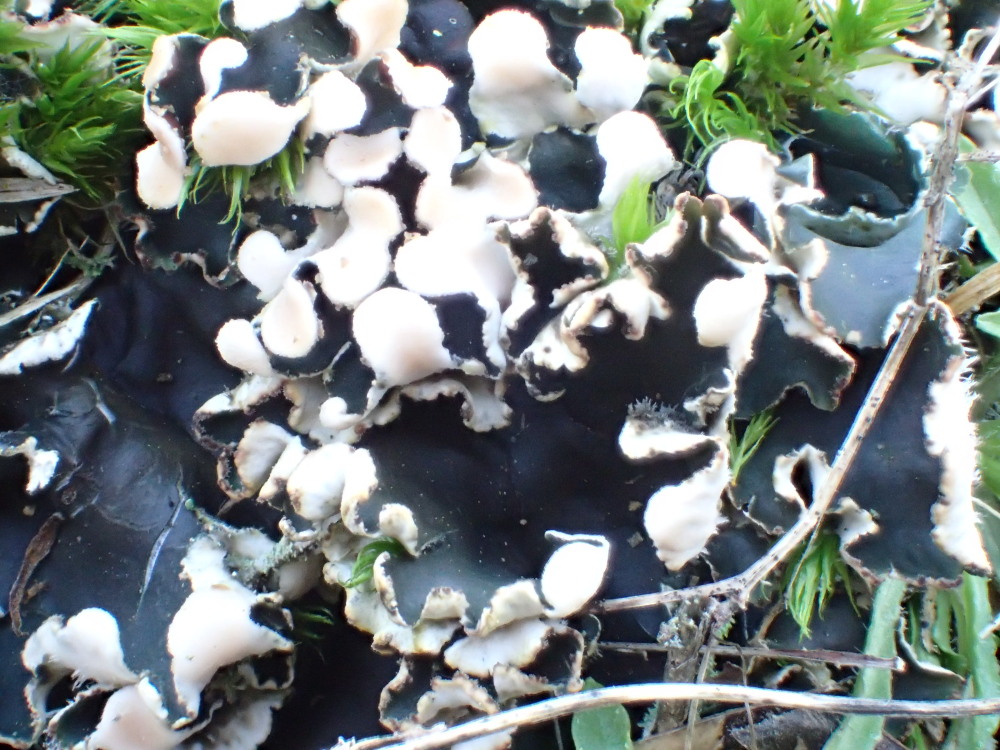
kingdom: Fungi
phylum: Ascomycota
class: Lecanoromycetes
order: Peltigerales
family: Peltigeraceae
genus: Peltigera
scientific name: Peltigera neckeri
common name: glinsende skjoldlav
